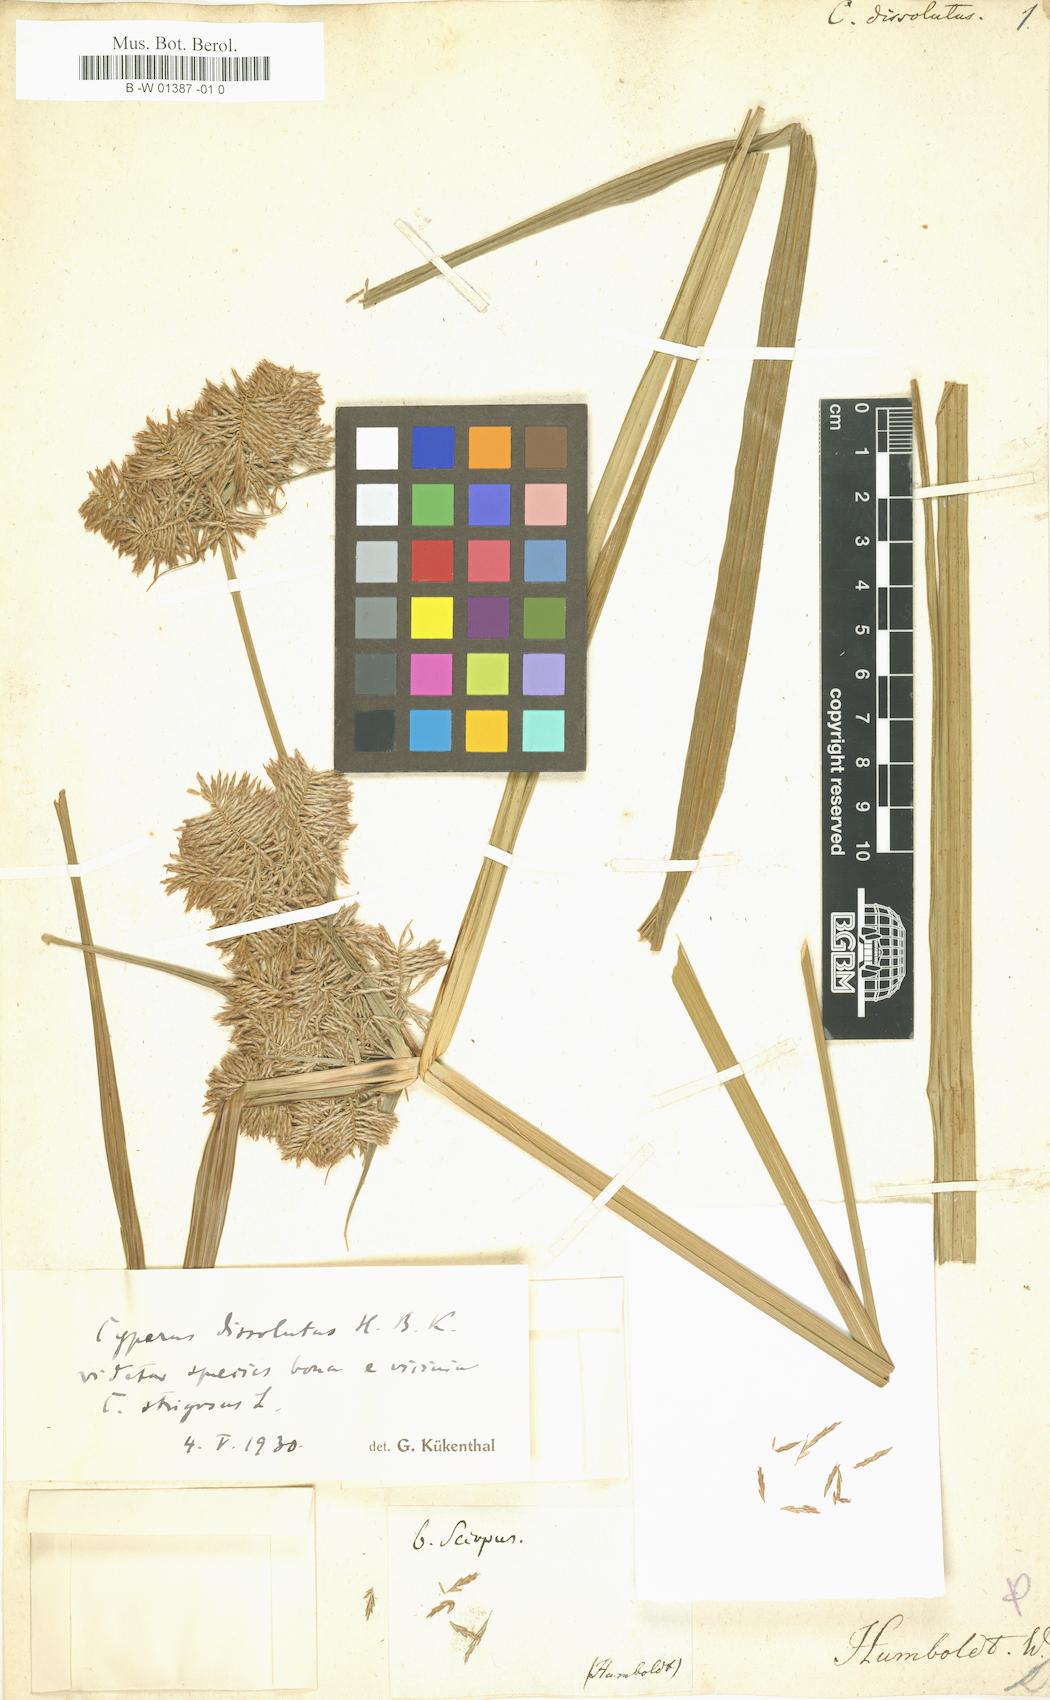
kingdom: Plantae
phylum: Tracheophyta
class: Liliopsida
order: Poales
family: Cyperaceae
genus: Cyperus
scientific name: Cyperus dissolutus
